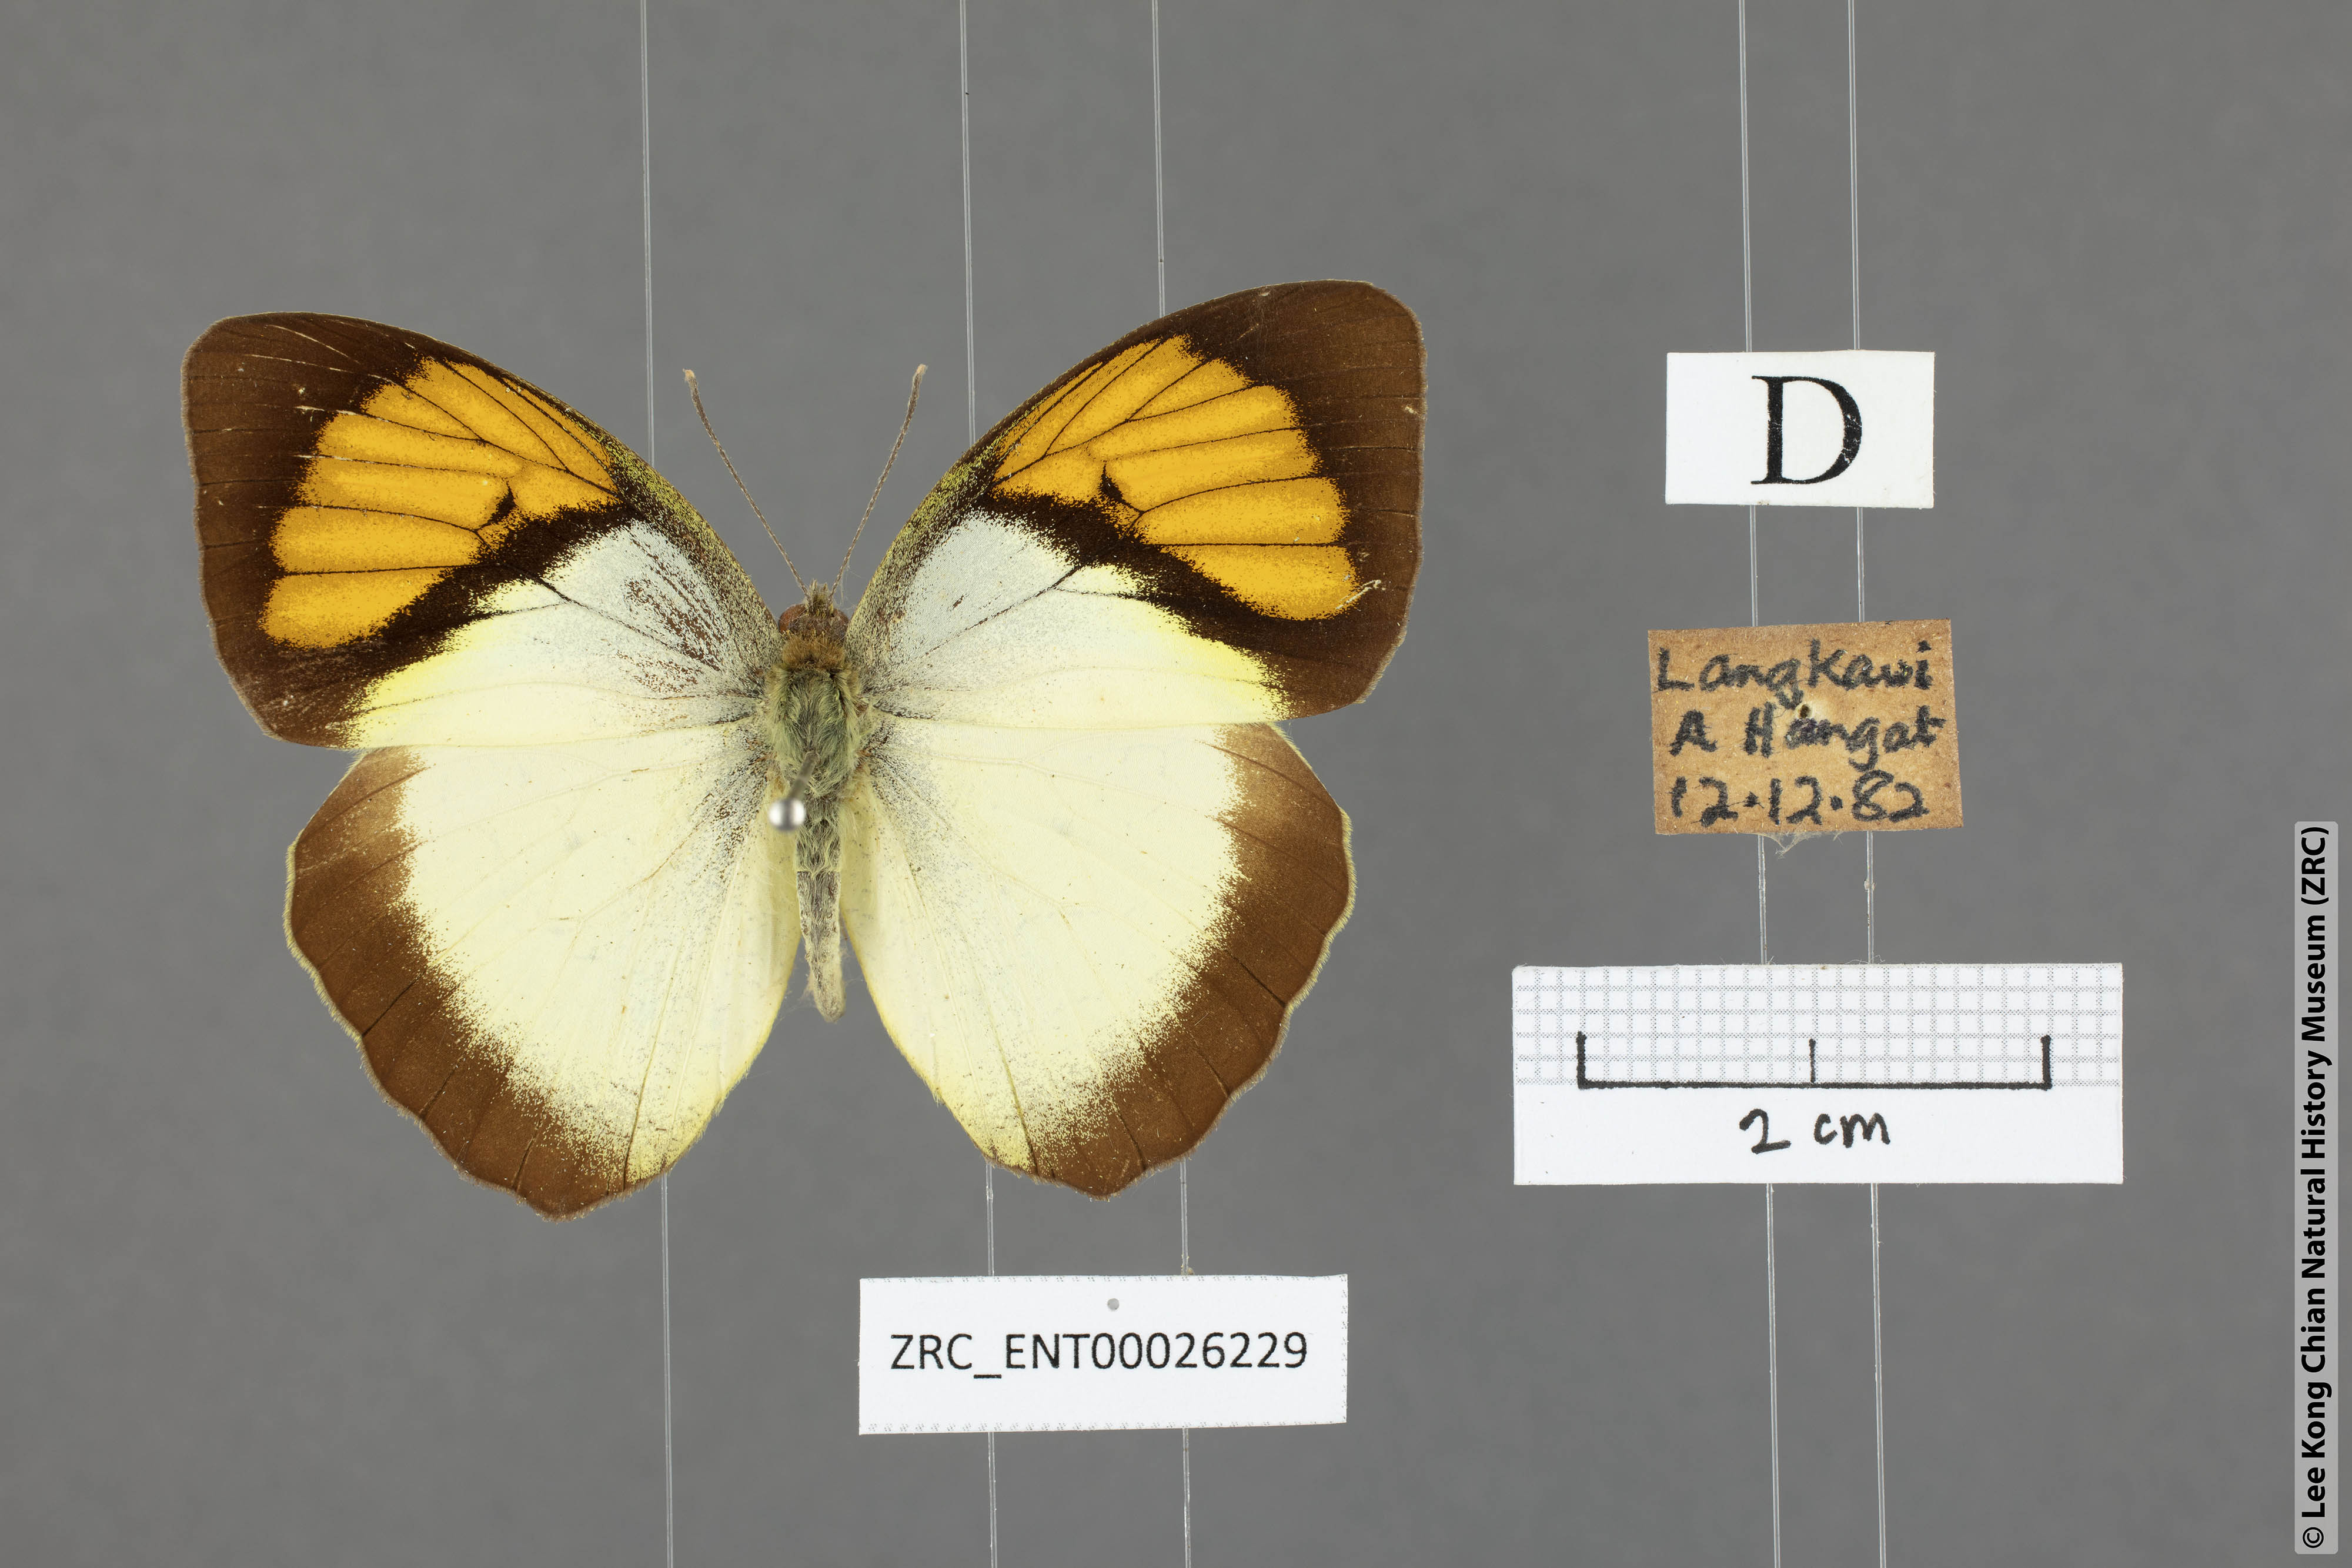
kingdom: Animalia
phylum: Arthropoda
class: Insecta
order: Lepidoptera
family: Pieridae
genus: Ixias
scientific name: Ixias pyrene
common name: Yellow orange tip
